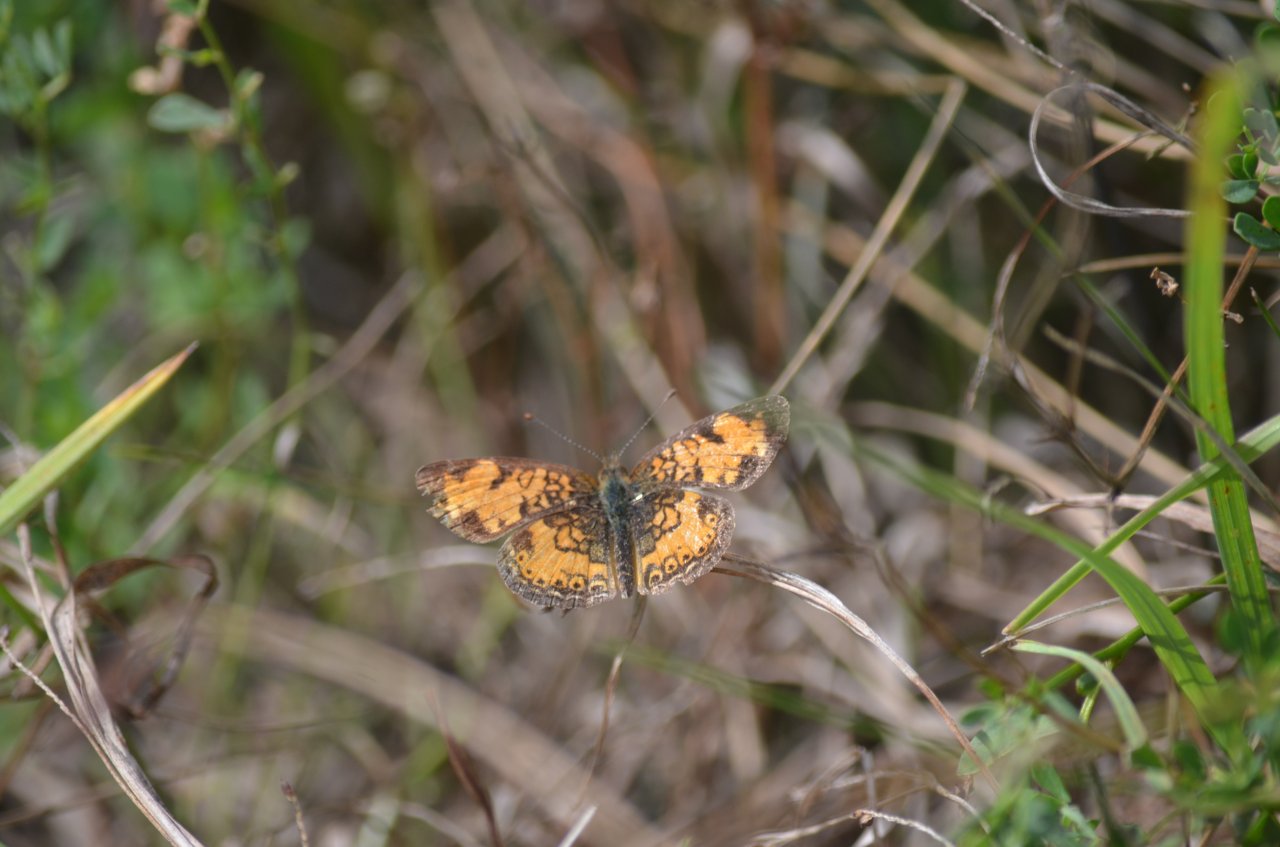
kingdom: Animalia
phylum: Arthropoda
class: Insecta
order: Lepidoptera
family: Nymphalidae
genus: Phyciodes
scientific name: Phyciodes tharos
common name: Northern Crescent
